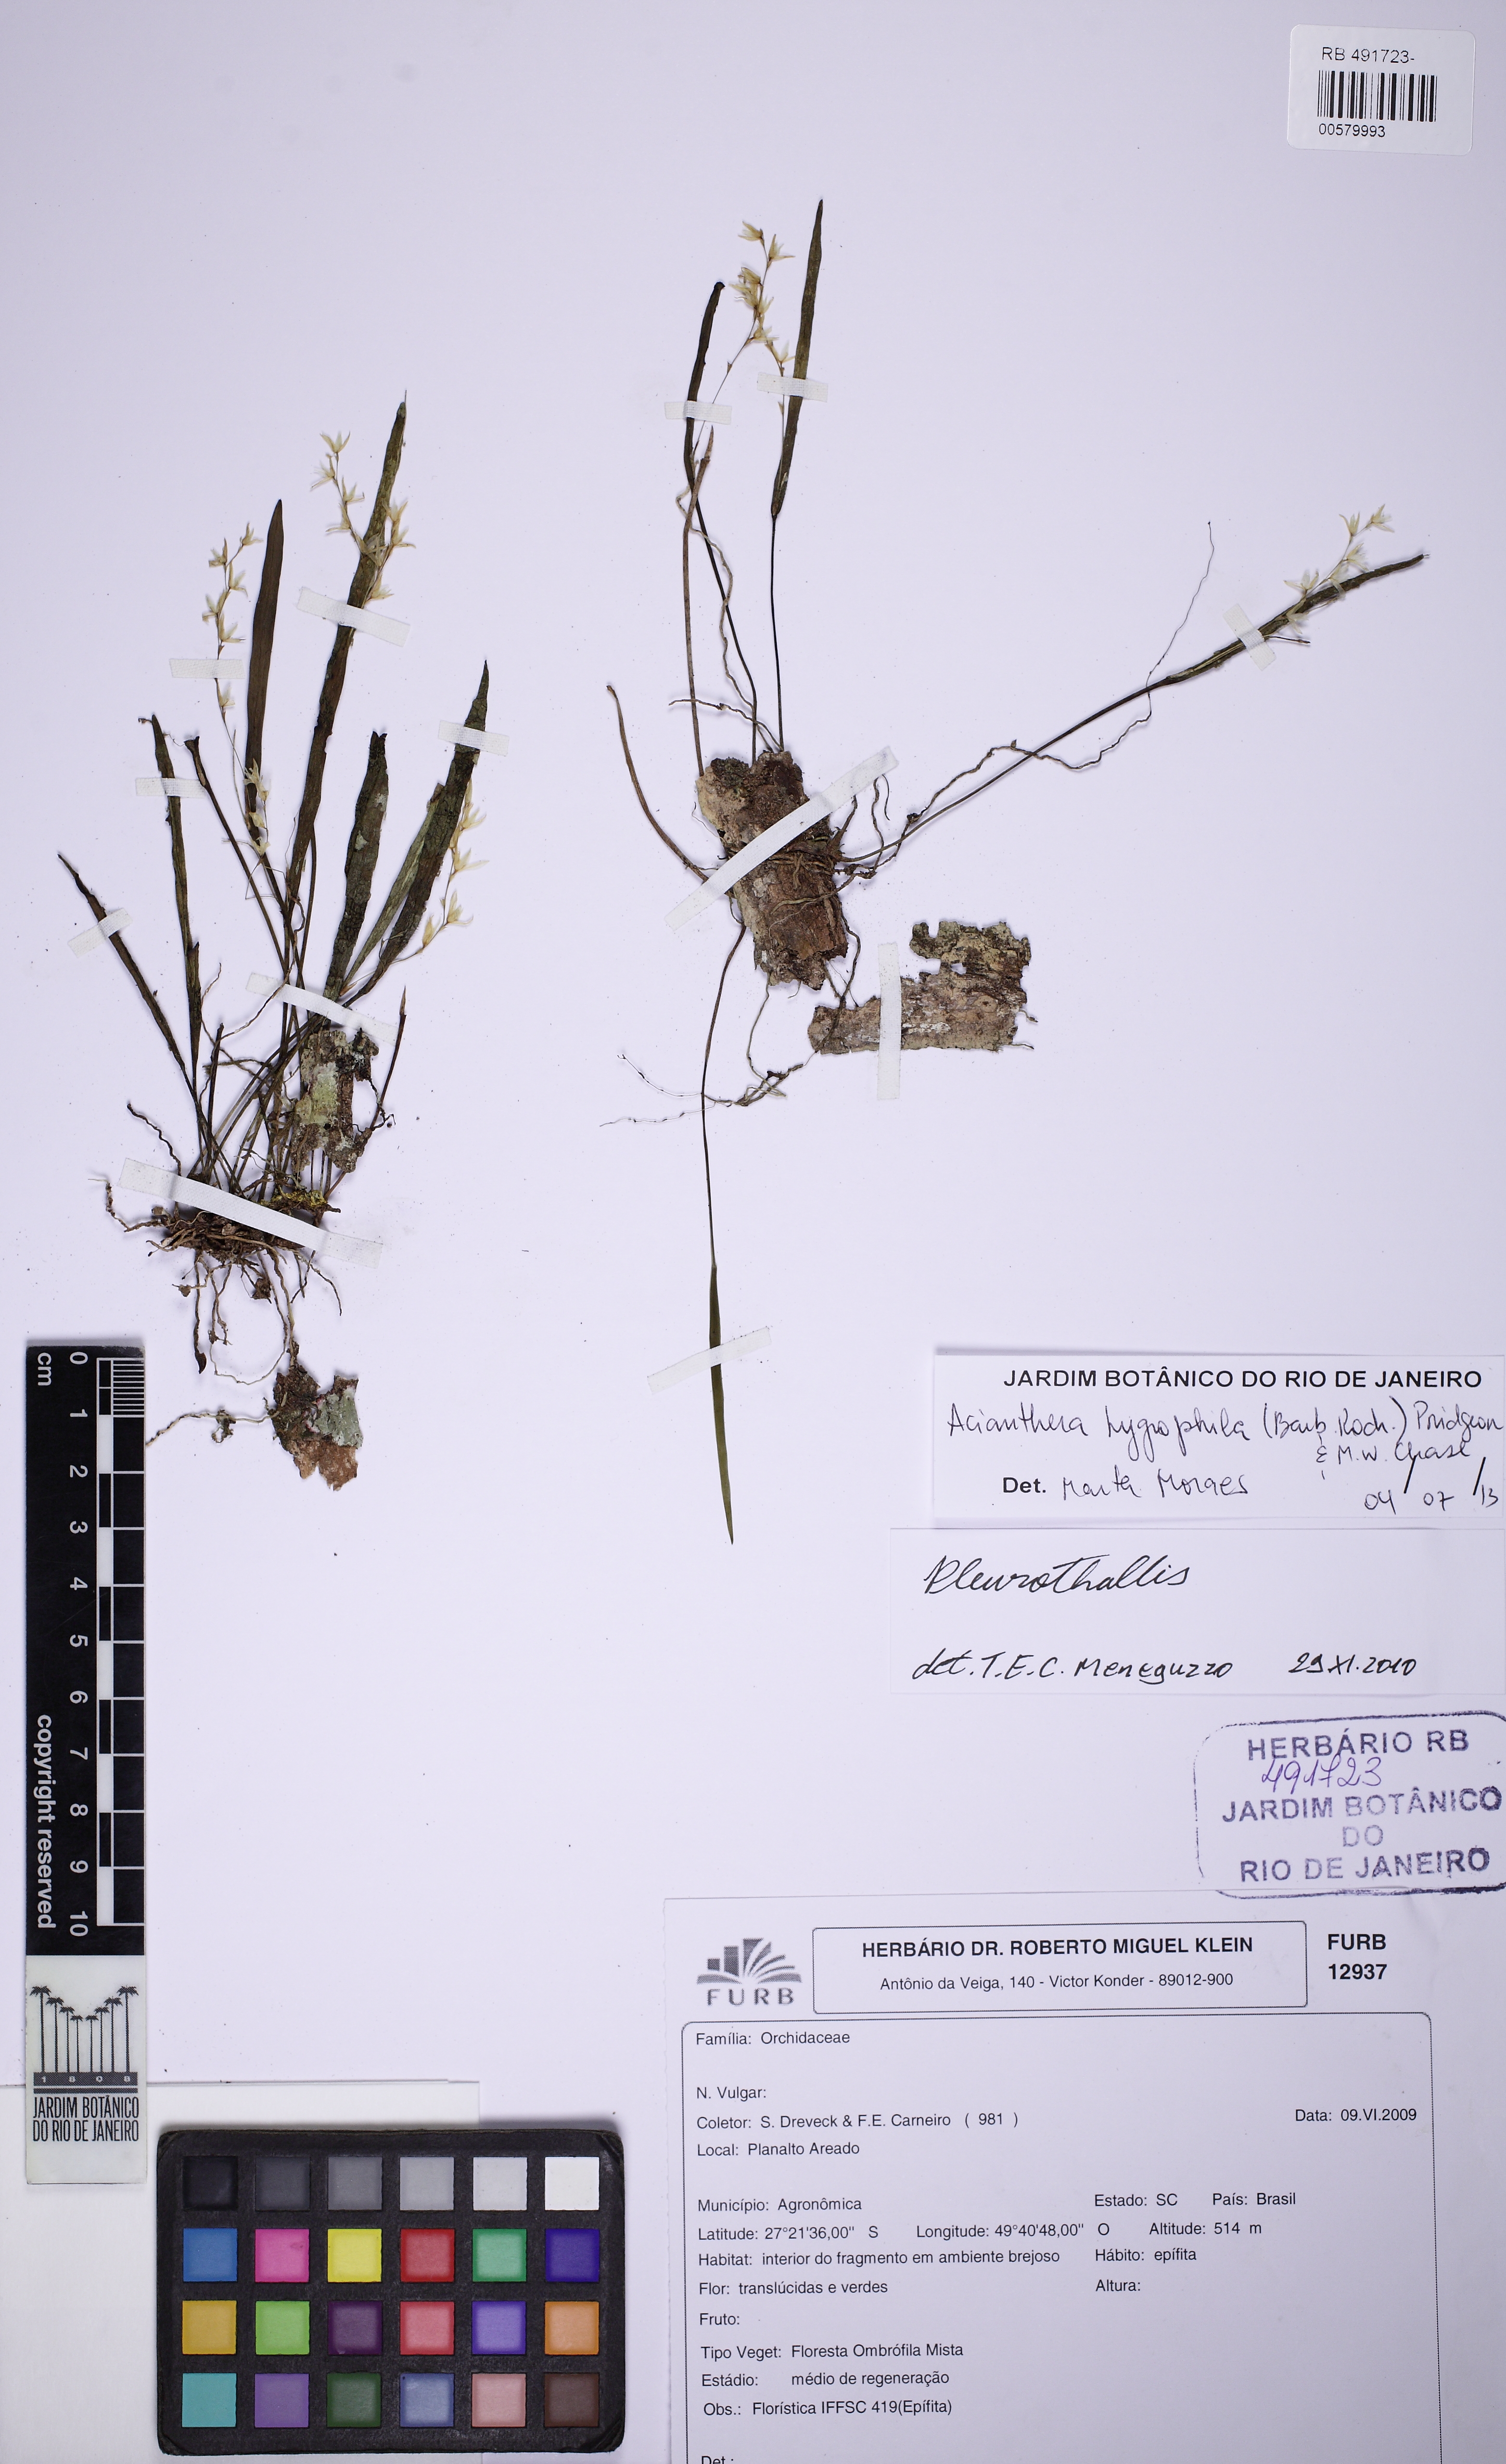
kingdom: Plantae
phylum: Tracheophyta
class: Liliopsida
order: Asparagales
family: Orchidaceae
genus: Acianthera
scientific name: Acianthera hygrophila
